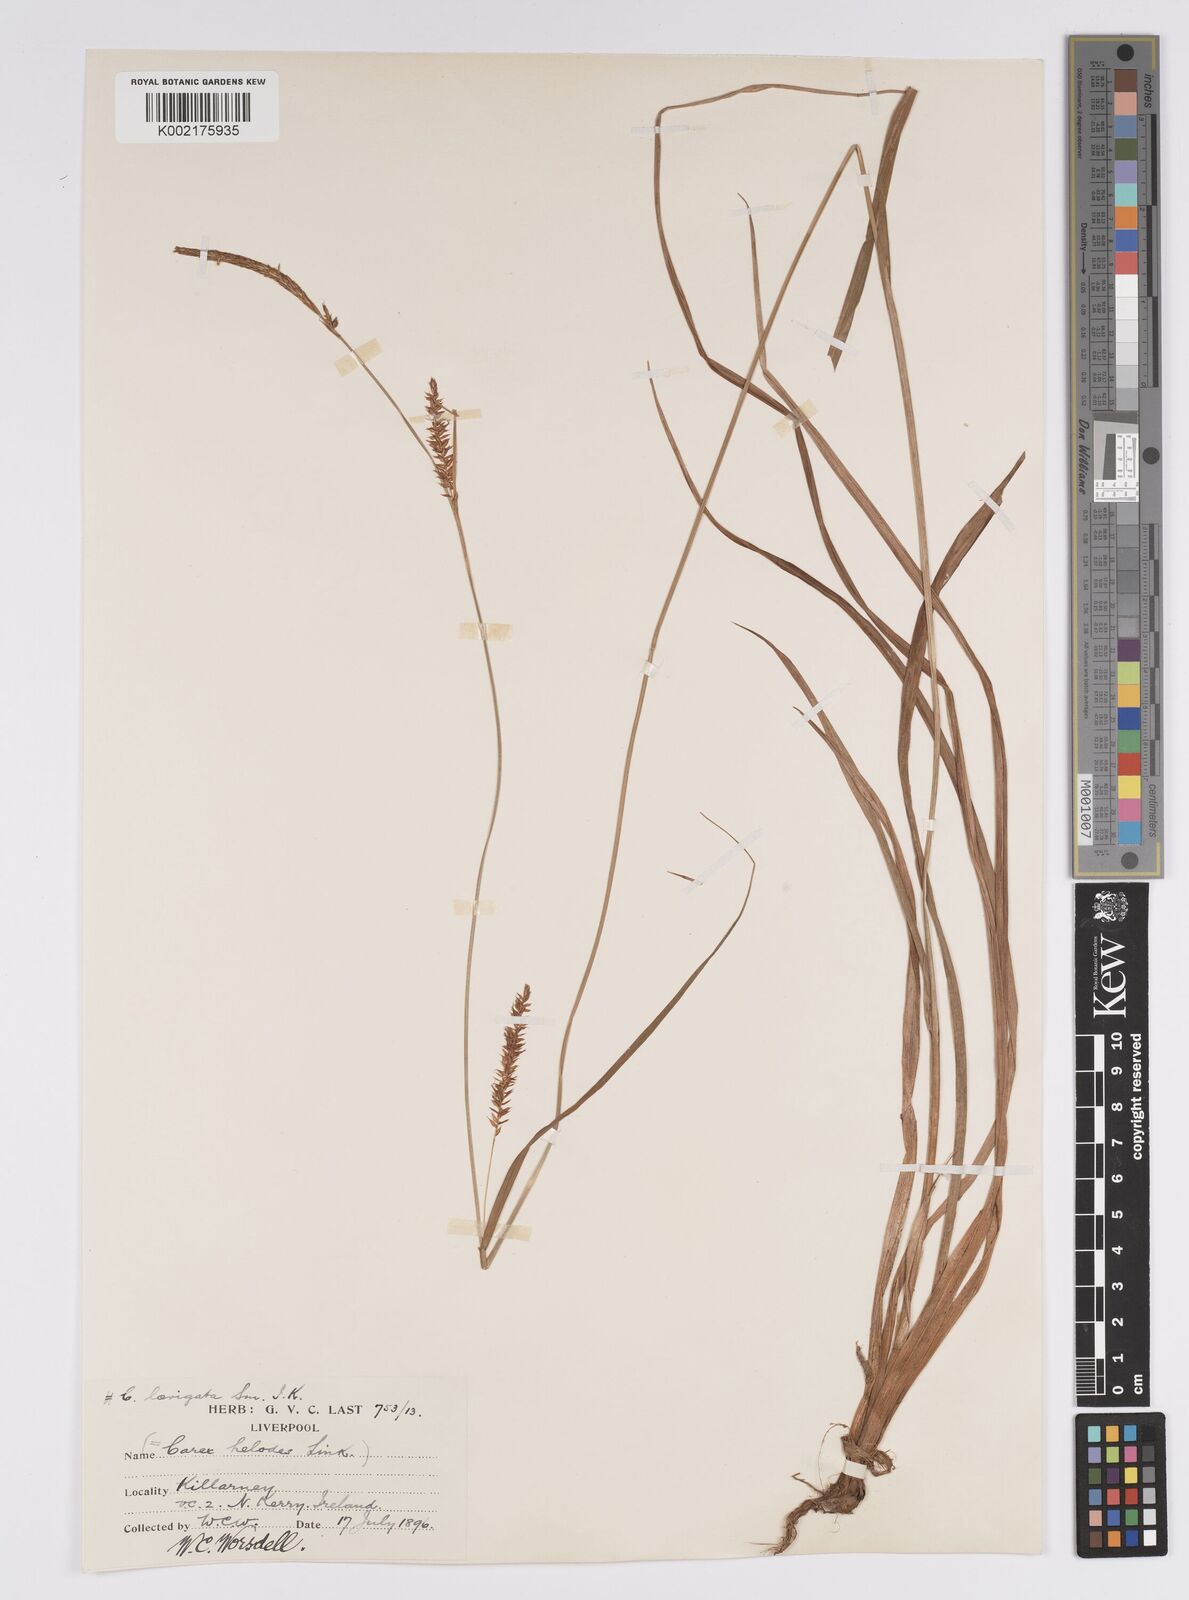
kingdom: Plantae
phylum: Tracheophyta
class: Liliopsida
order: Poales
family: Cyperaceae
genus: Carex
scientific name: Carex laevigata
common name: Smooth-stalked sedge
